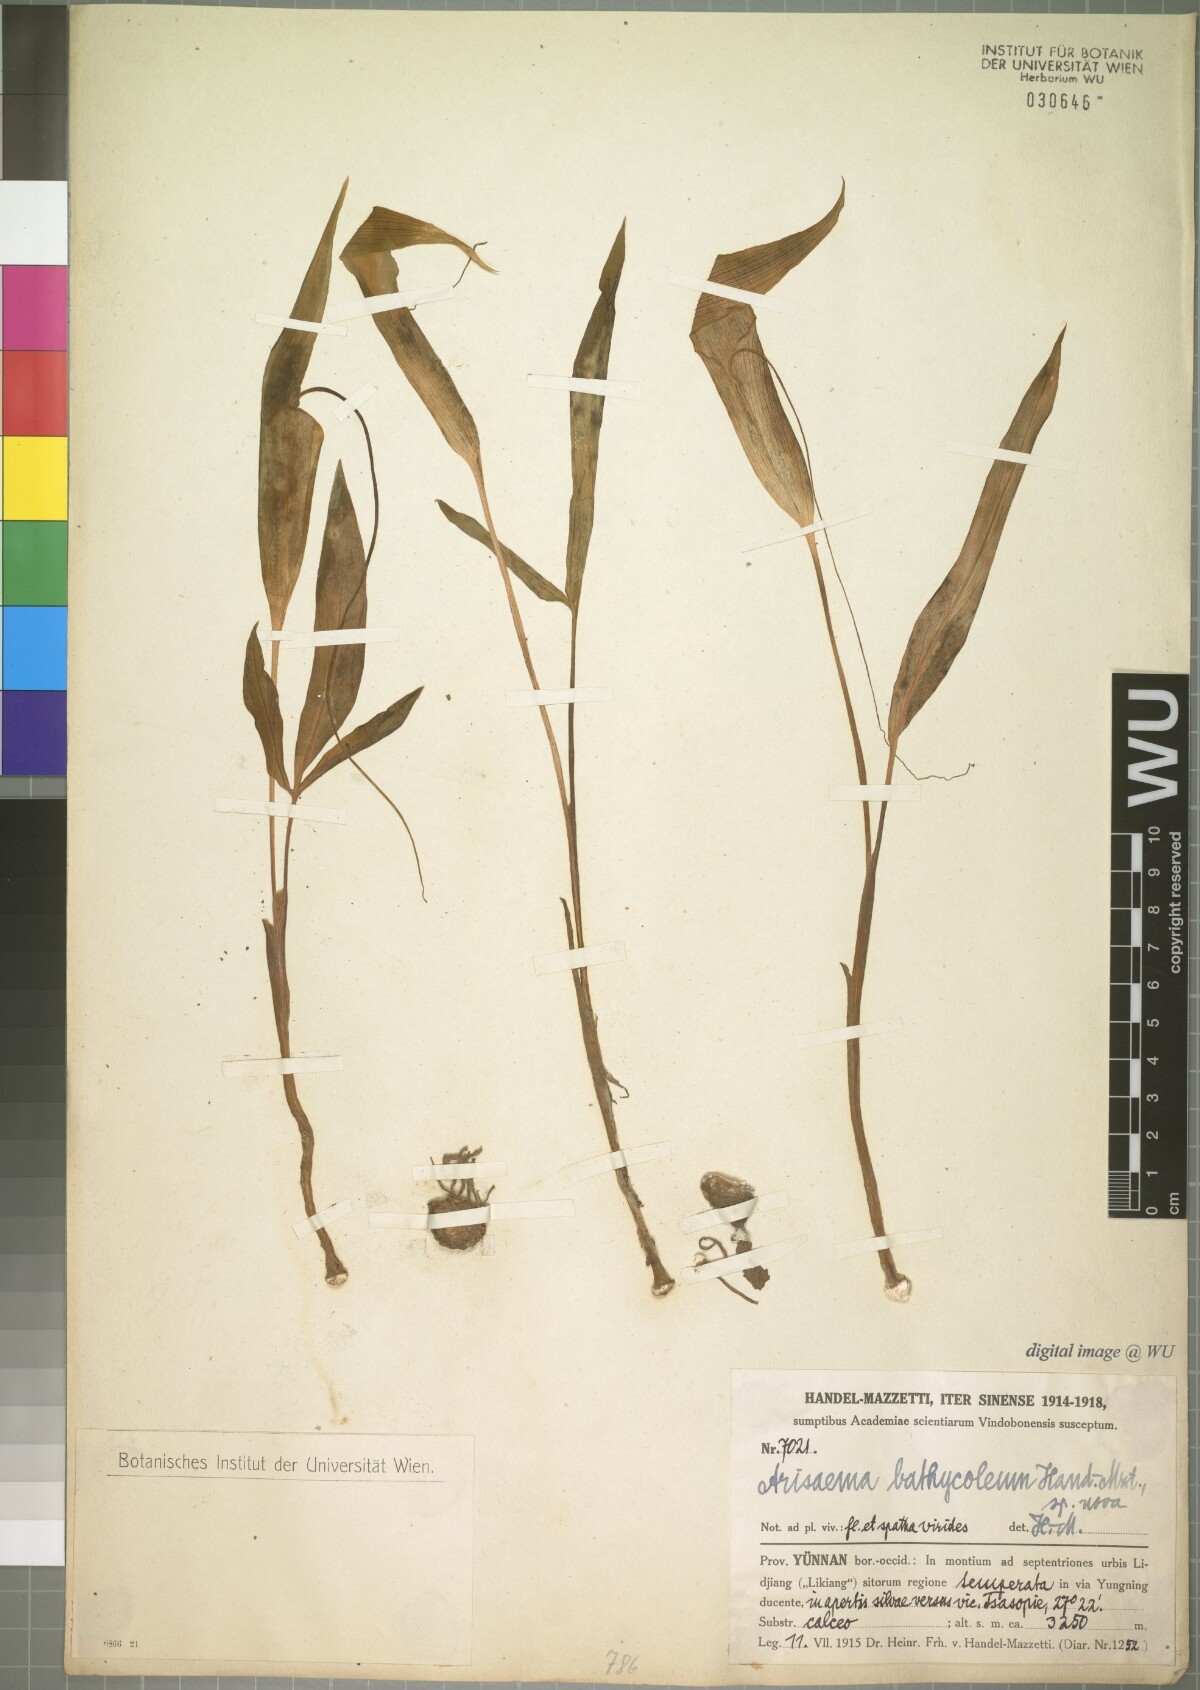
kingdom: Plantae
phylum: Tracheophyta
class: Liliopsida
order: Alismatales
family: Araceae
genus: Arisaema
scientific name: Arisaema bathycoleum
